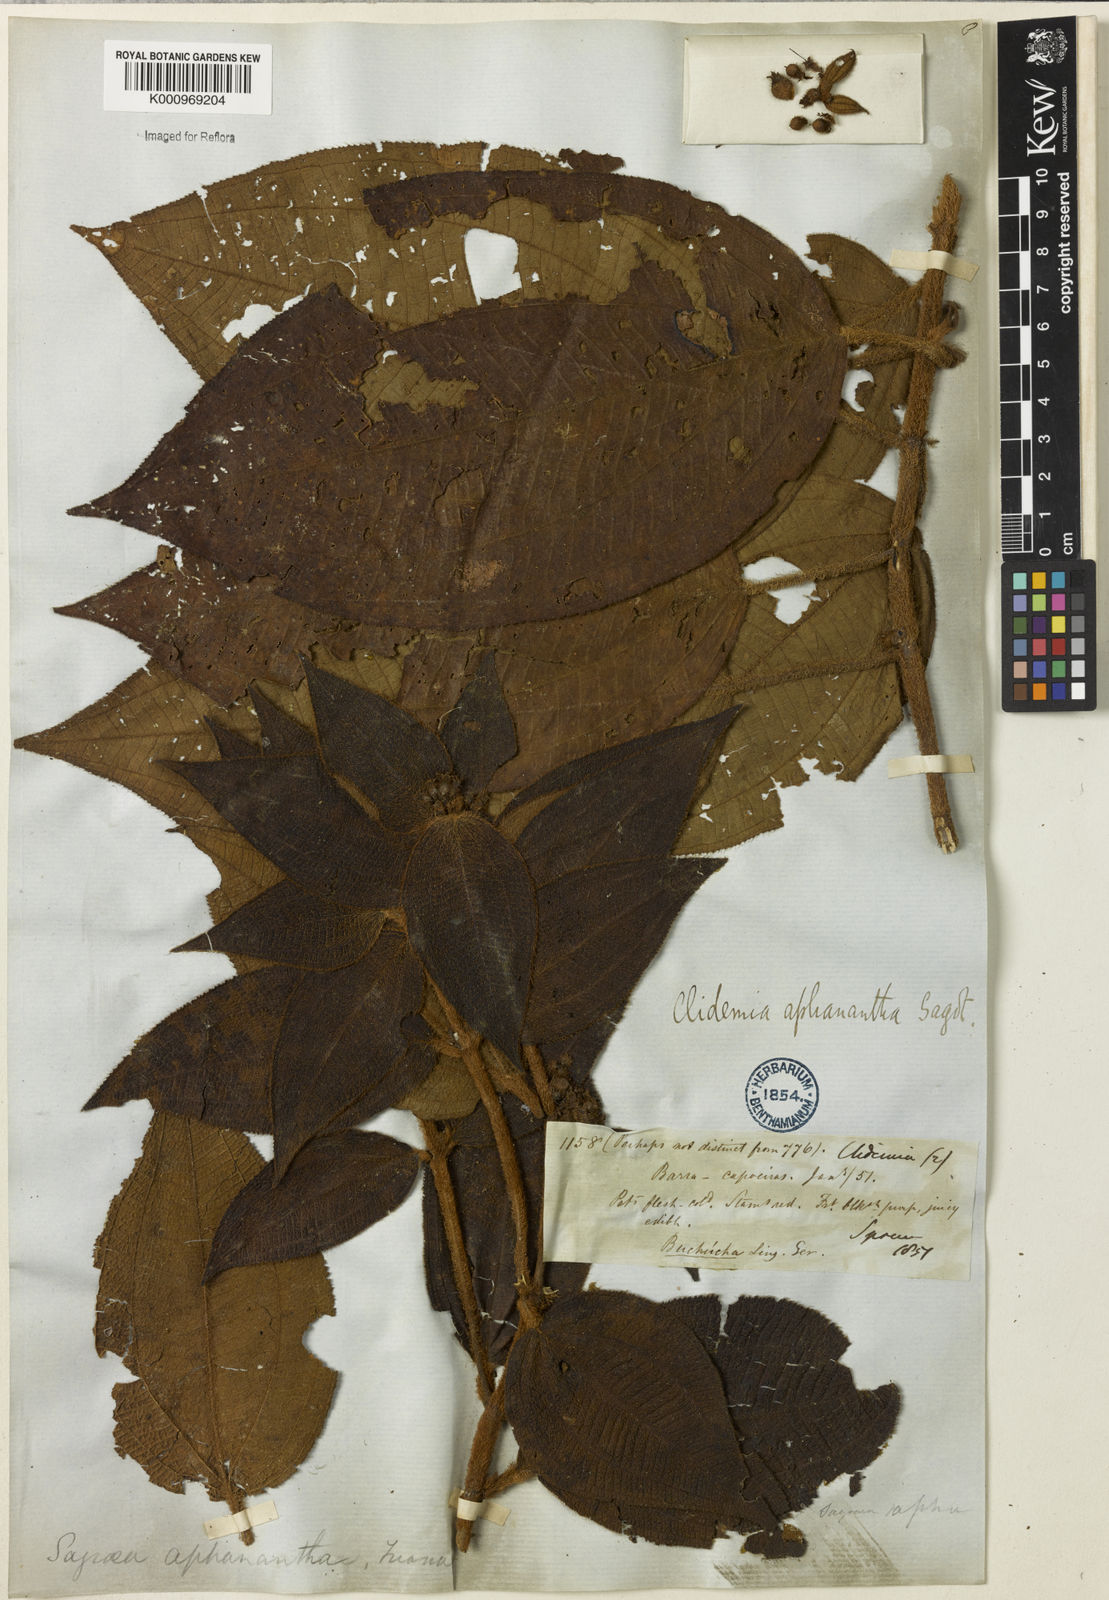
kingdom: Plantae
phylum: Tracheophyta
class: Magnoliopsida
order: Myrtales
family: Melastomataceae
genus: Miconia
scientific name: Miconia aphanantha
